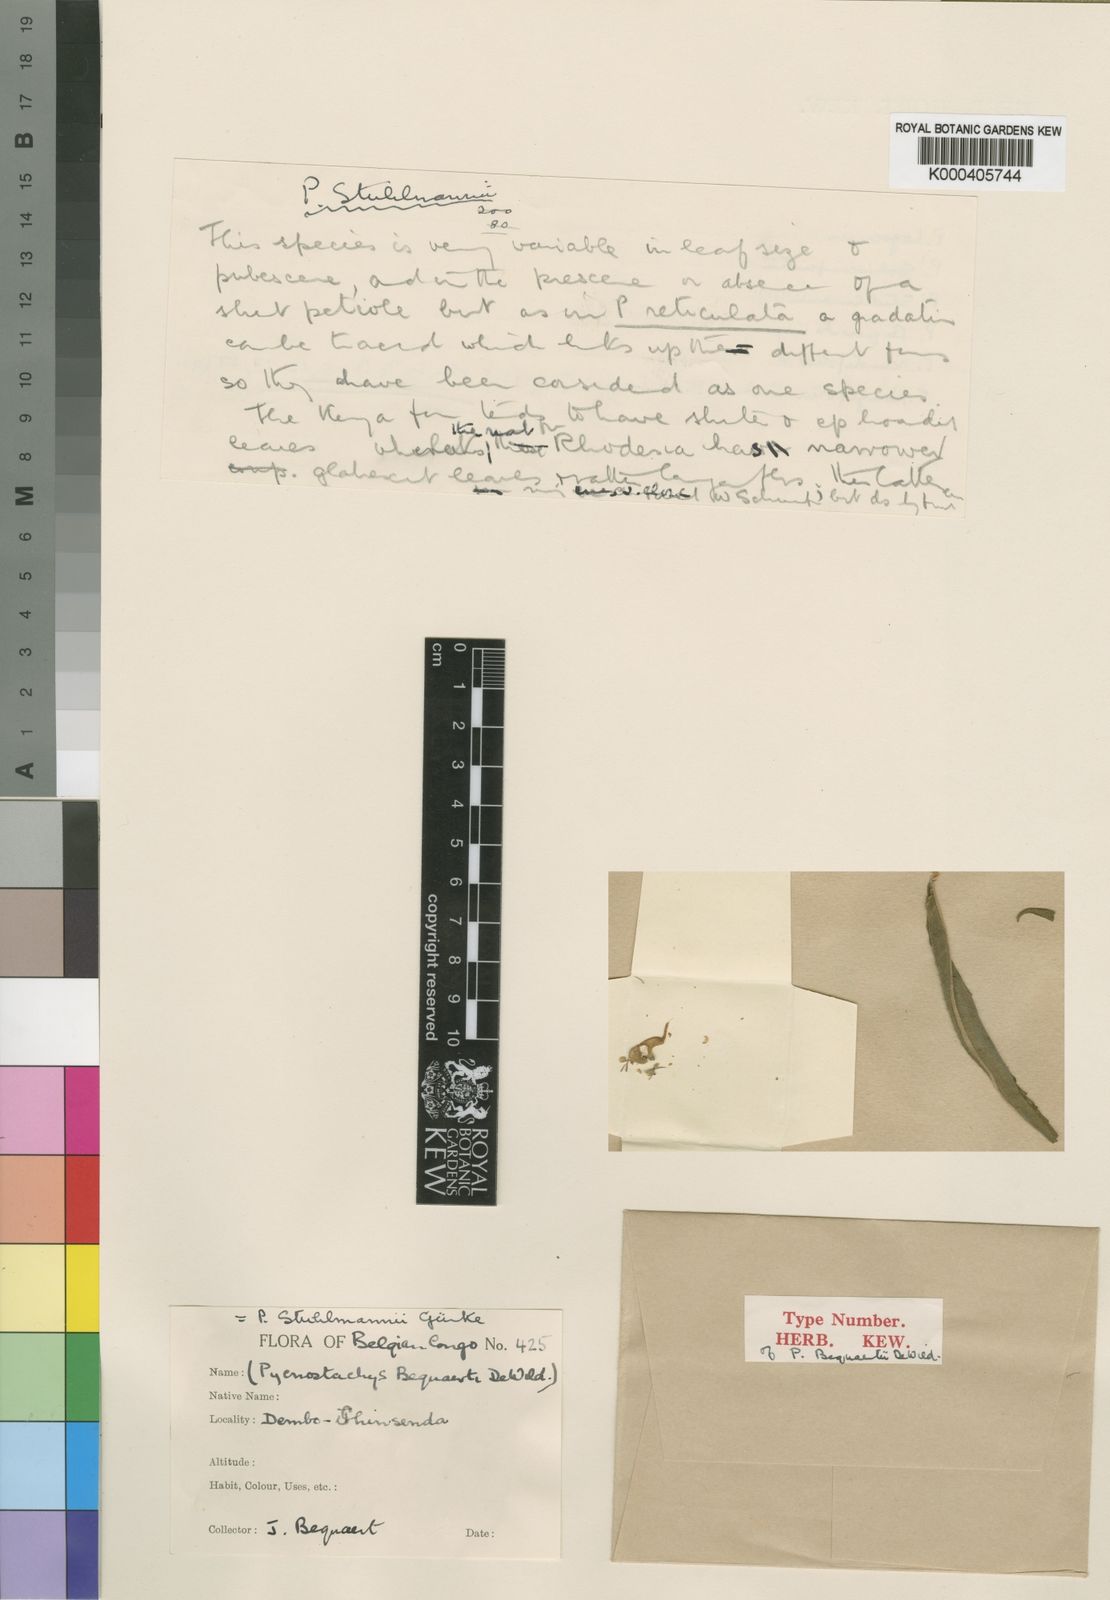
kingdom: Plantae
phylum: Tracheophyta
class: Magnoliopsida
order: Lamiales
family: Lamiaceae
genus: Coleus
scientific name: Coleus
